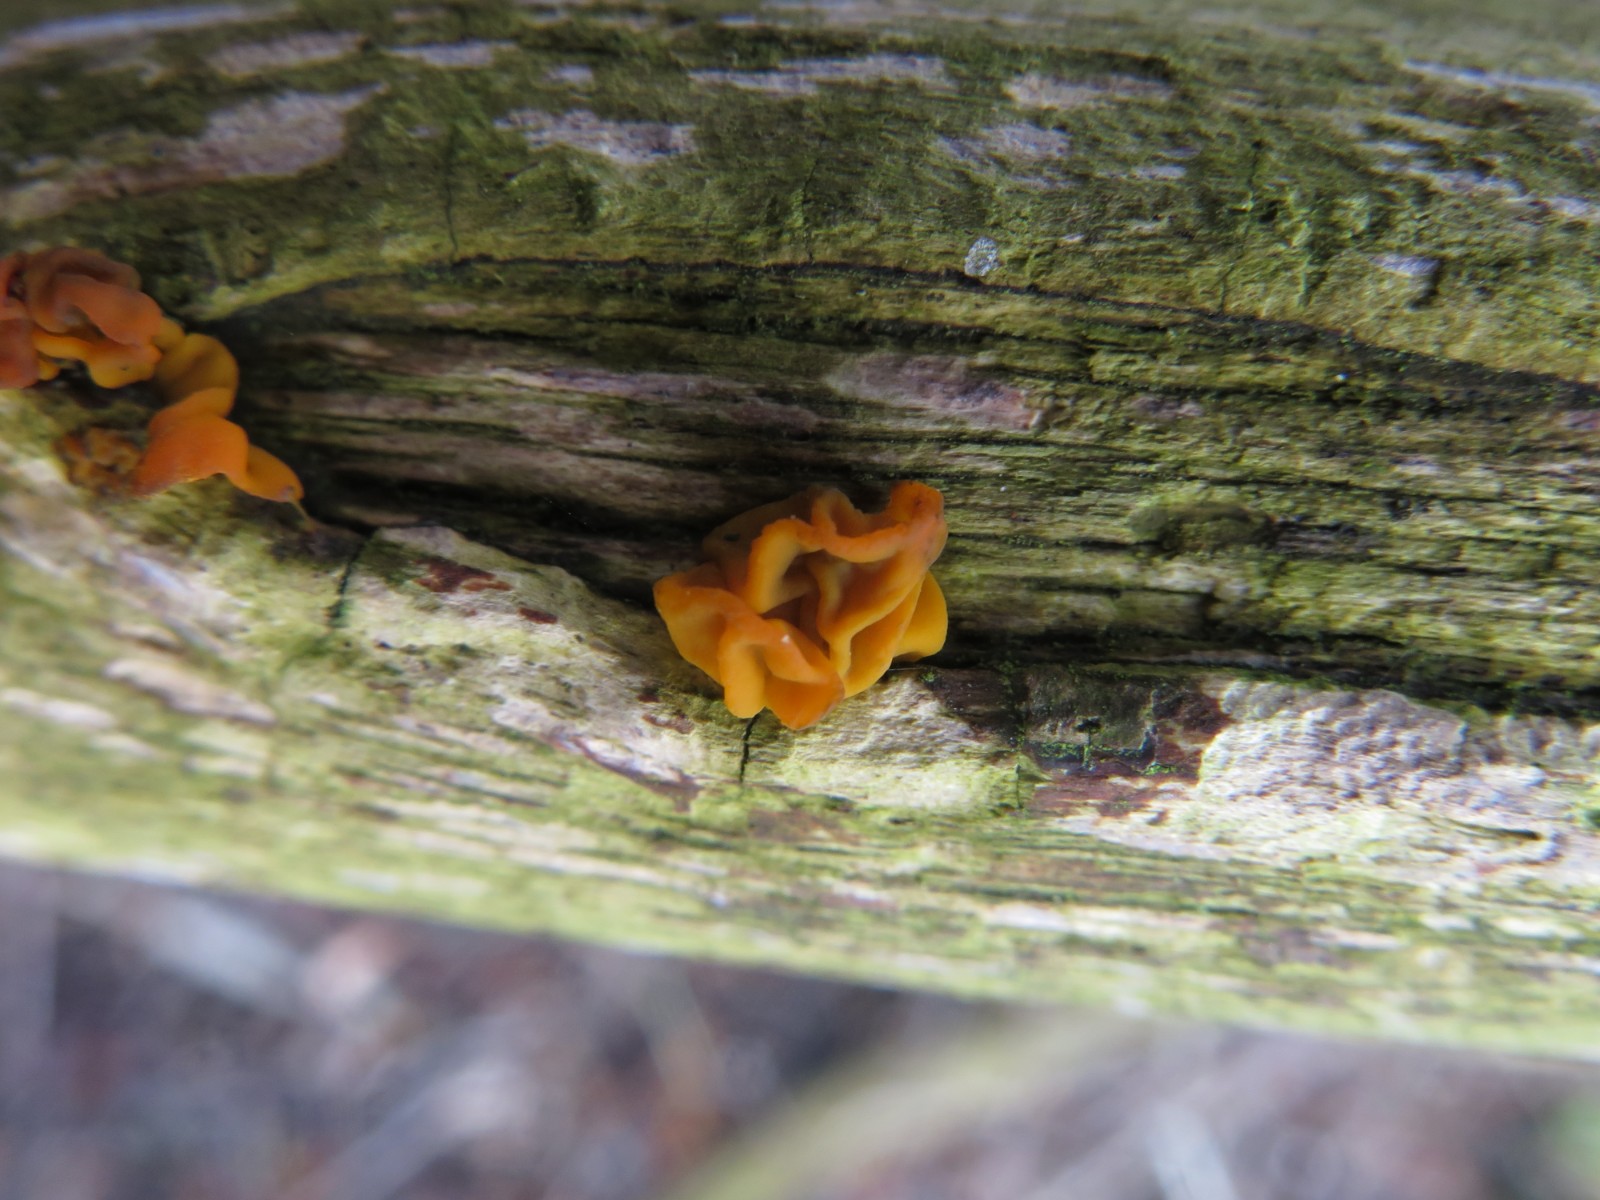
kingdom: Fungi
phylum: Basidiomycota
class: Tremellomycetes
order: Tremellales
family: Tremellaceae
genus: Tremella
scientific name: Tremella mesenterica
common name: gul bævresvamp
